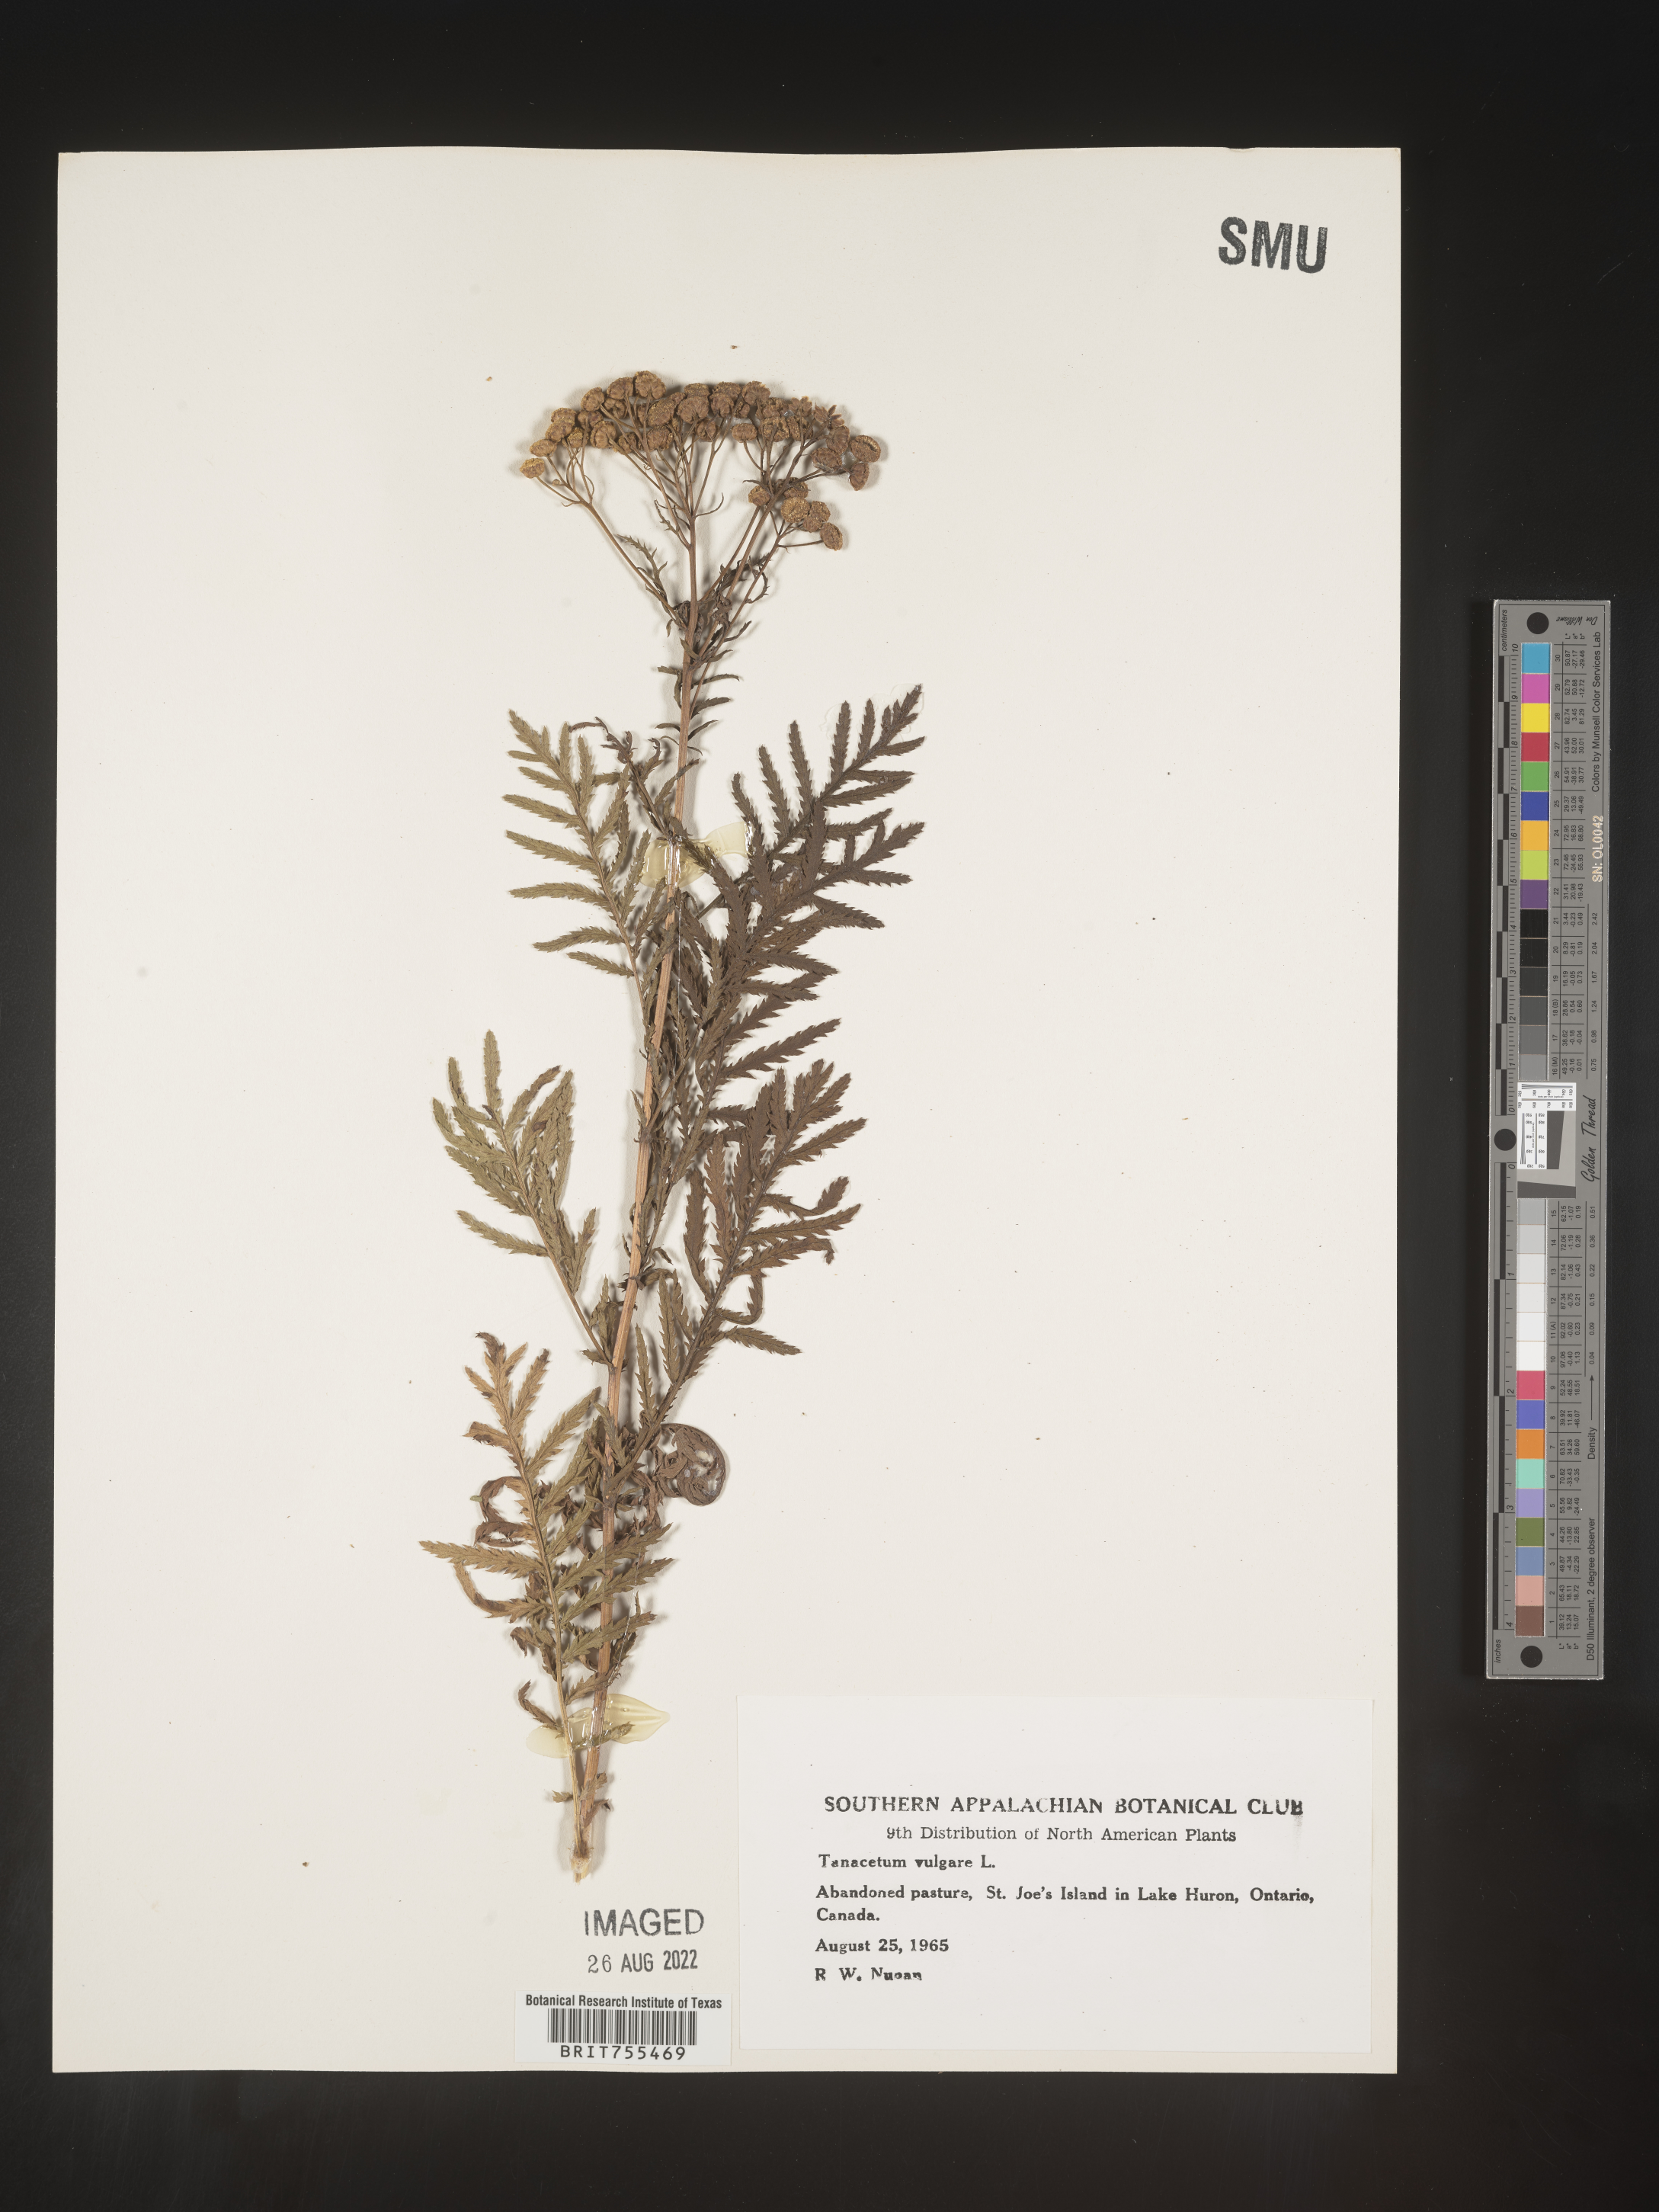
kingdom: Plantae
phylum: Tracheophyta
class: Magnoliopsida
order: Asterales
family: Asteraceae
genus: Tanacetum
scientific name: Tanacetum vulgare
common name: Common tansy
